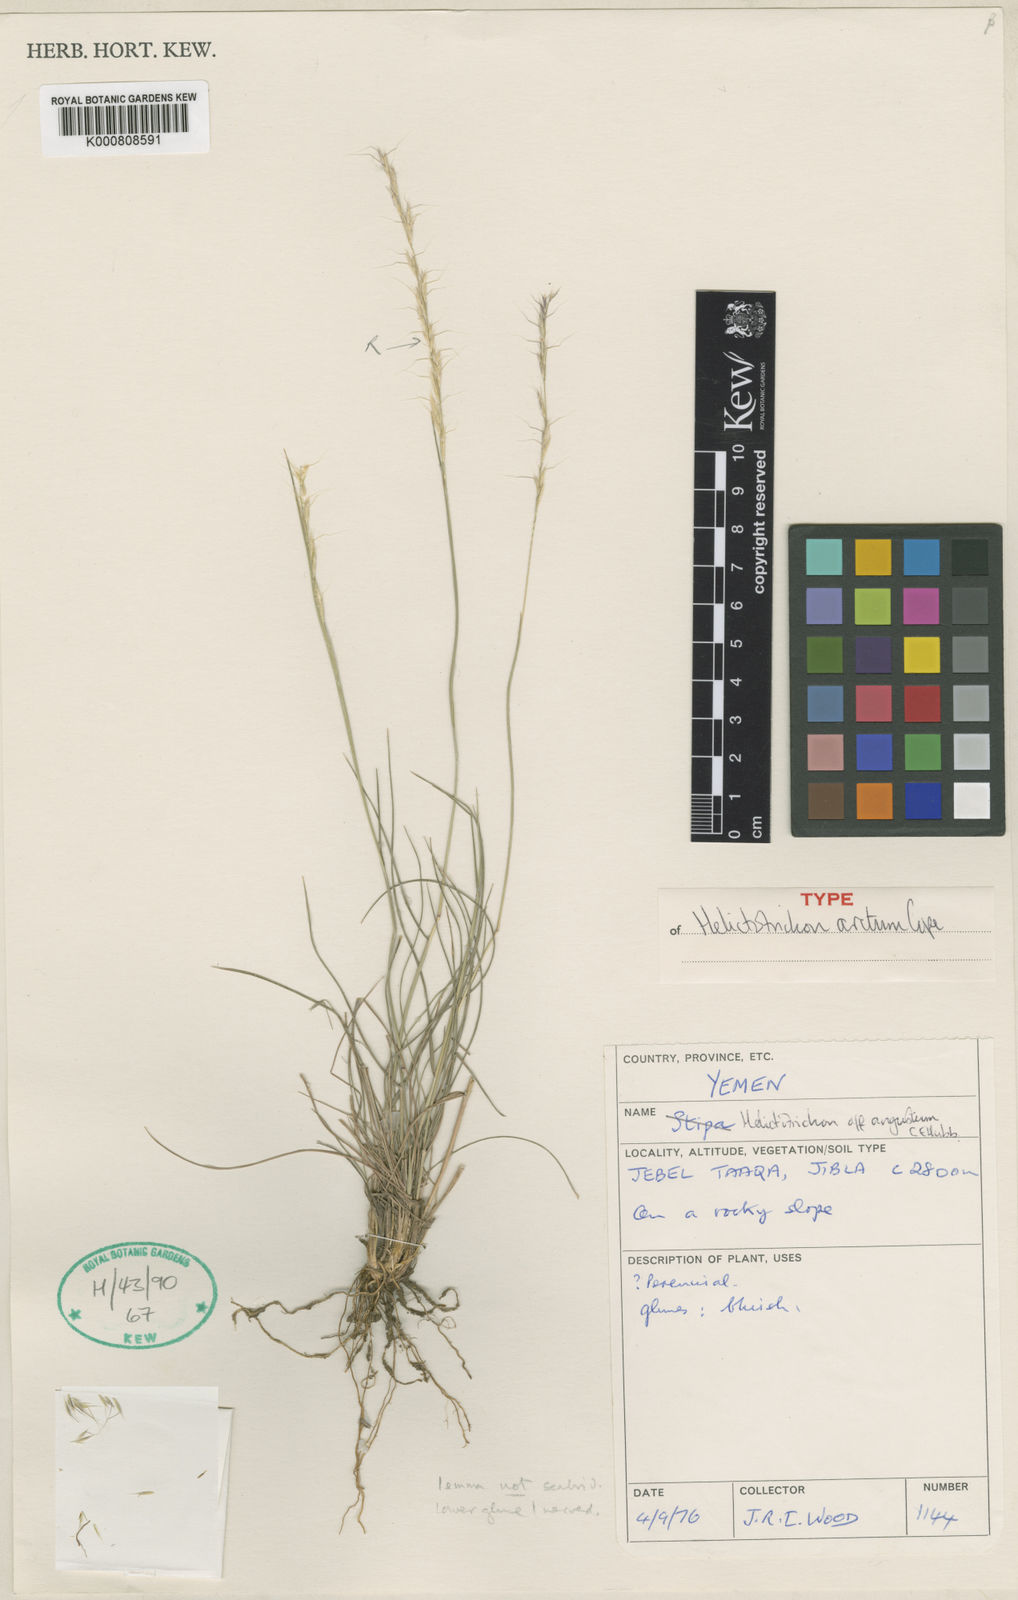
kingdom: Plantae
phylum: Tracheophyta
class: Liliopsida
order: Poales
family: Poaceae
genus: Trisetopsis
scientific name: Trisetopsis arcta
